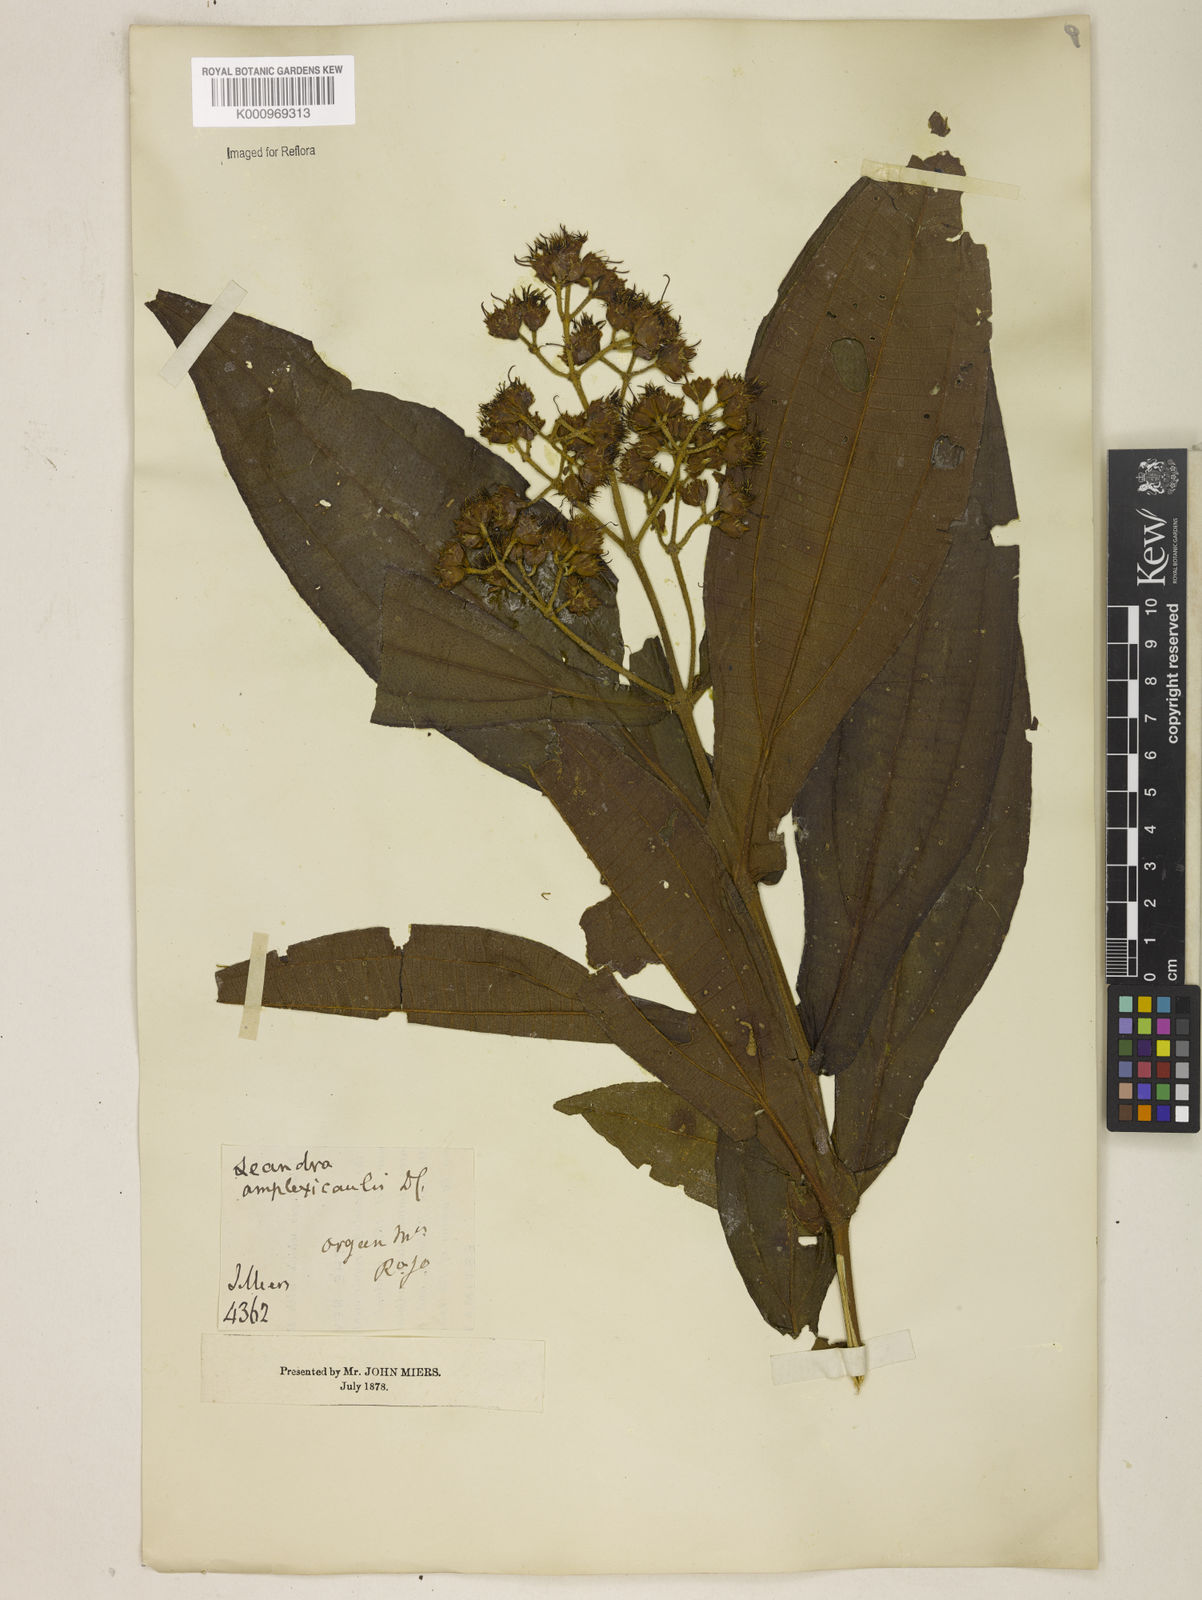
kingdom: Plantae
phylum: Tracheophyta
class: Magnoliopsida
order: Myrtales
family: Melastomataceae
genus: Miconia
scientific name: Miconia pectinata
